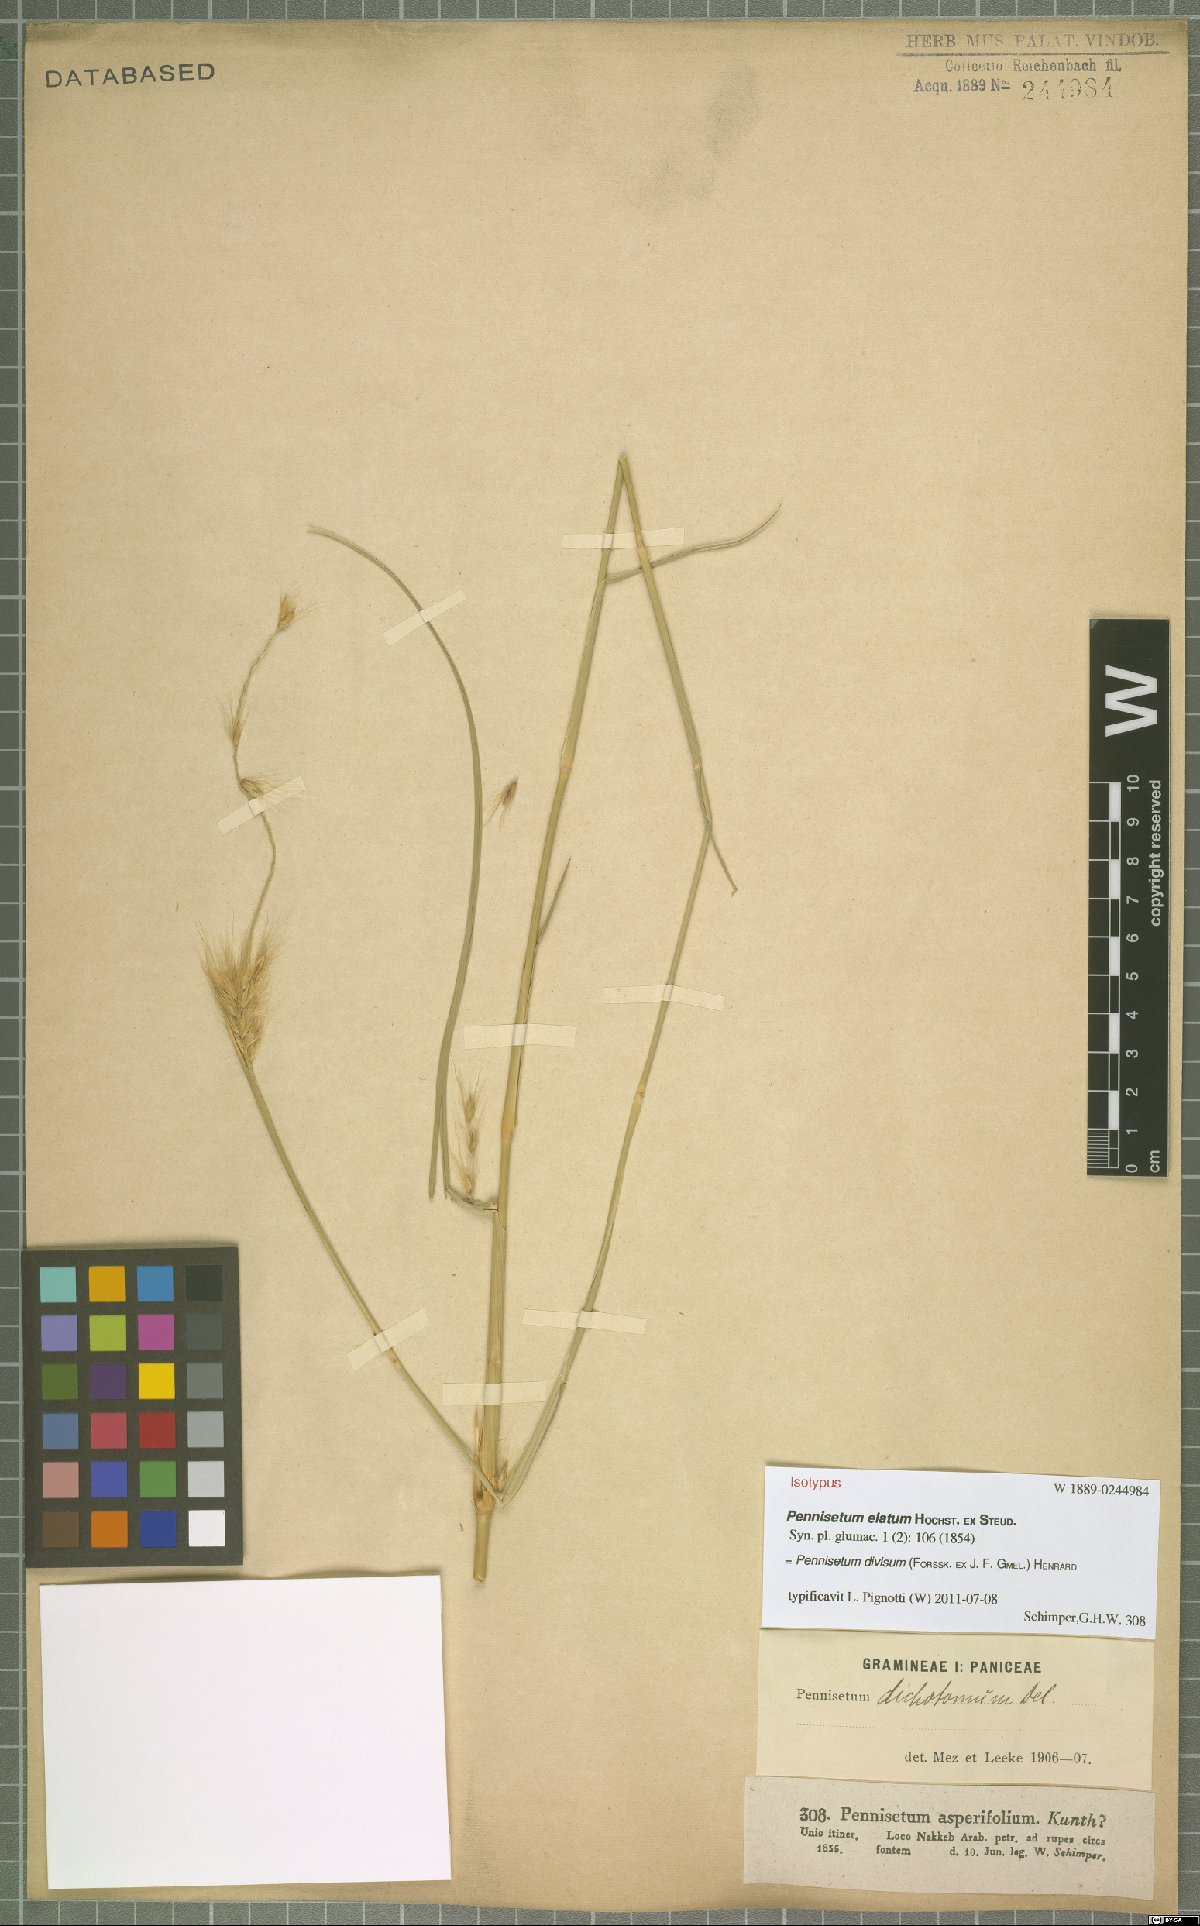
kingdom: Plantae
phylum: Tracheophyta
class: Liliopsida
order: Poales
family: Poaceae
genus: Cenchrus
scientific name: Cenchrus divisus
